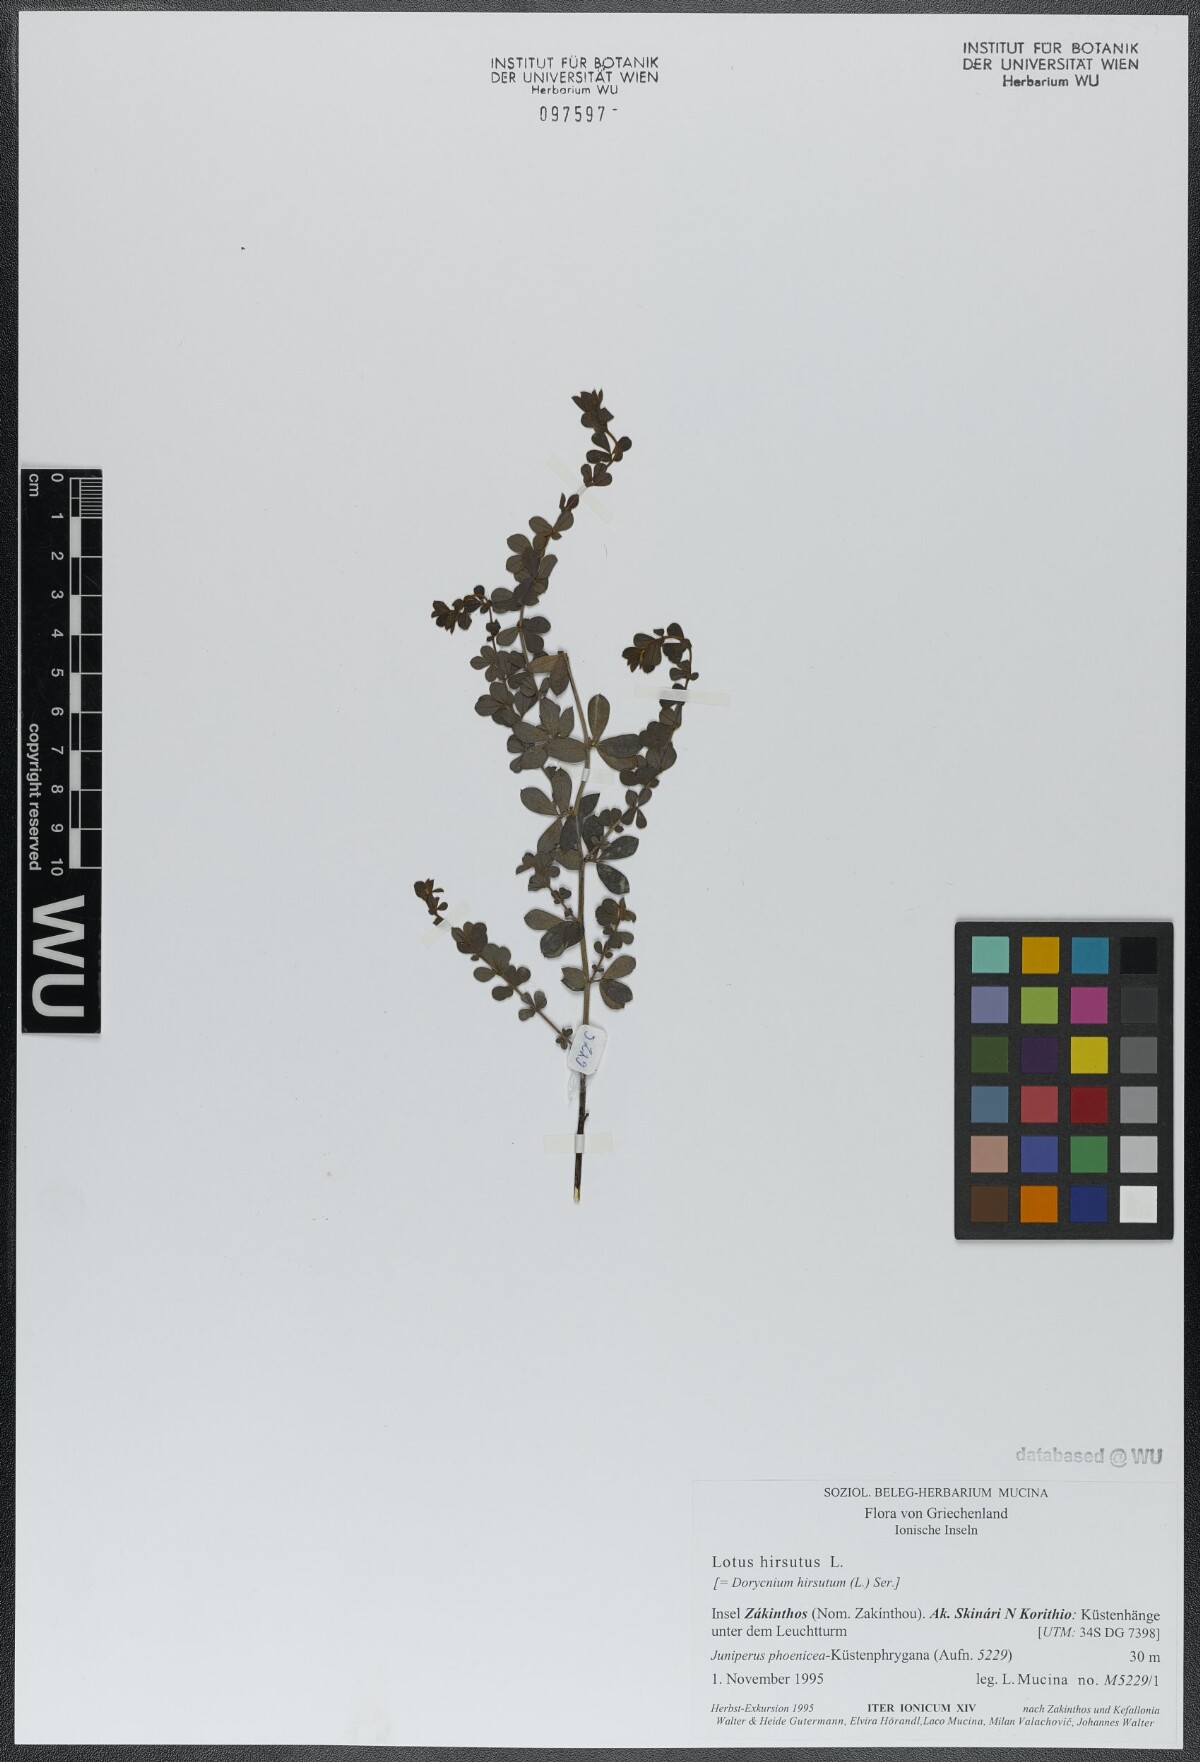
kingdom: Plantae
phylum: Tracheophyta
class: Magnoliopsida
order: Fabales
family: Fabaceae
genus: Lotus
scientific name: Lotus hirsutus
